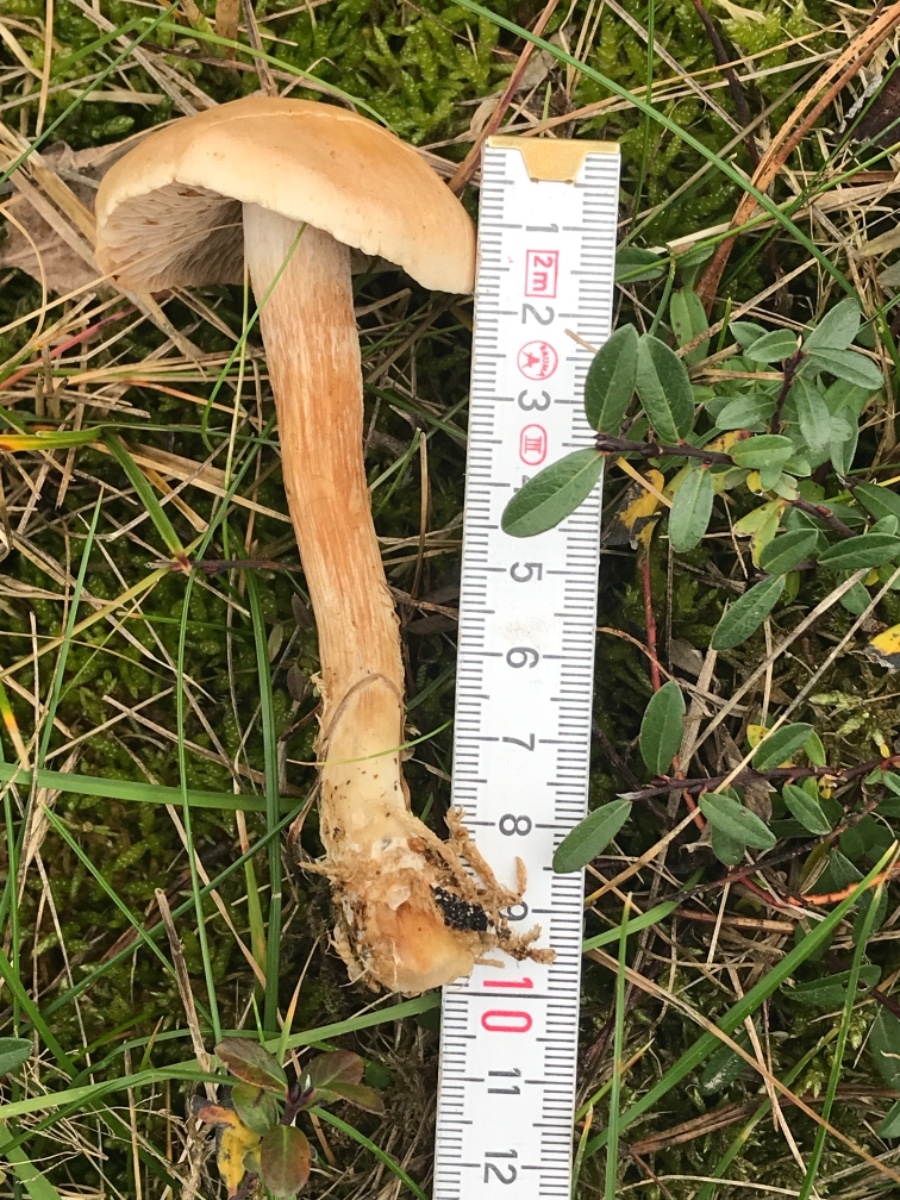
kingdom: Fungi
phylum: Basidiomycota
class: Agaricomycetes
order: Agaricales
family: Hymenogastraceae
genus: Hebeloma
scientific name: Hebeloma
